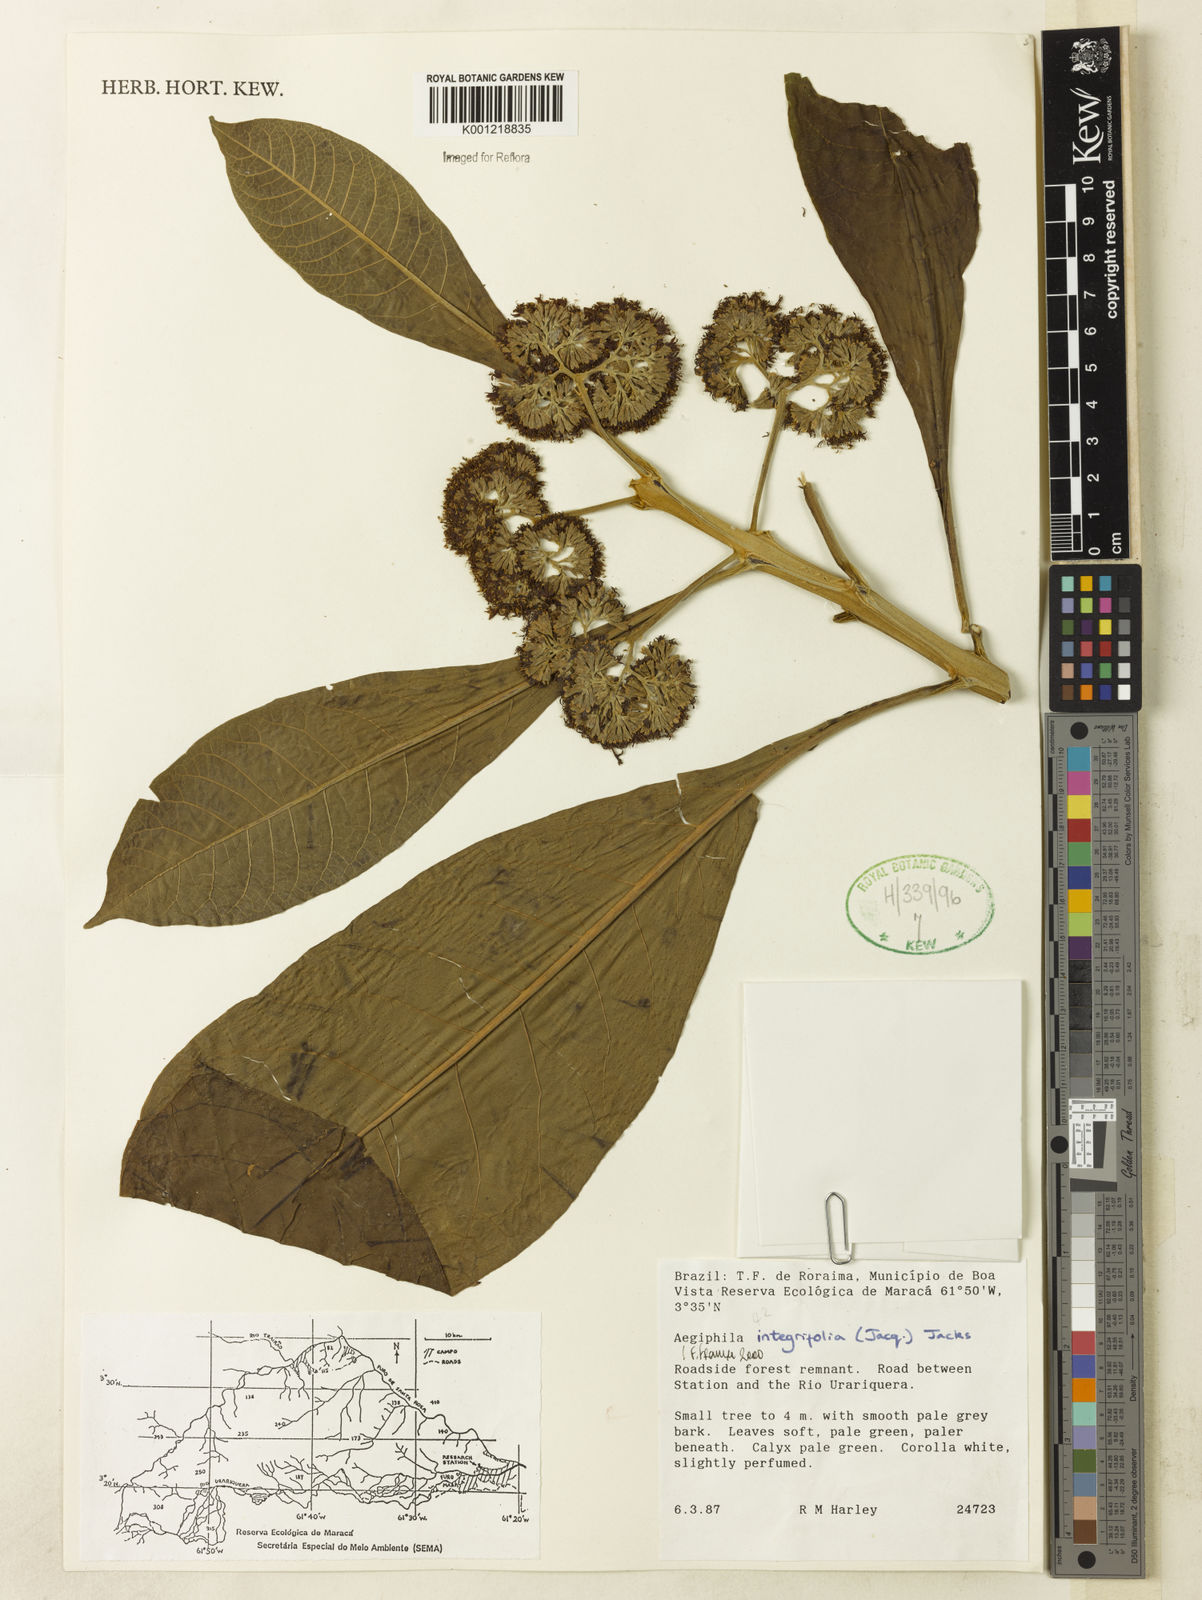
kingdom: Plantae
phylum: Tracheophyta
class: Magnoliopsida
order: Lamiales
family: Lamiaceae
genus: Aegiphila
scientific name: Aegiphila
